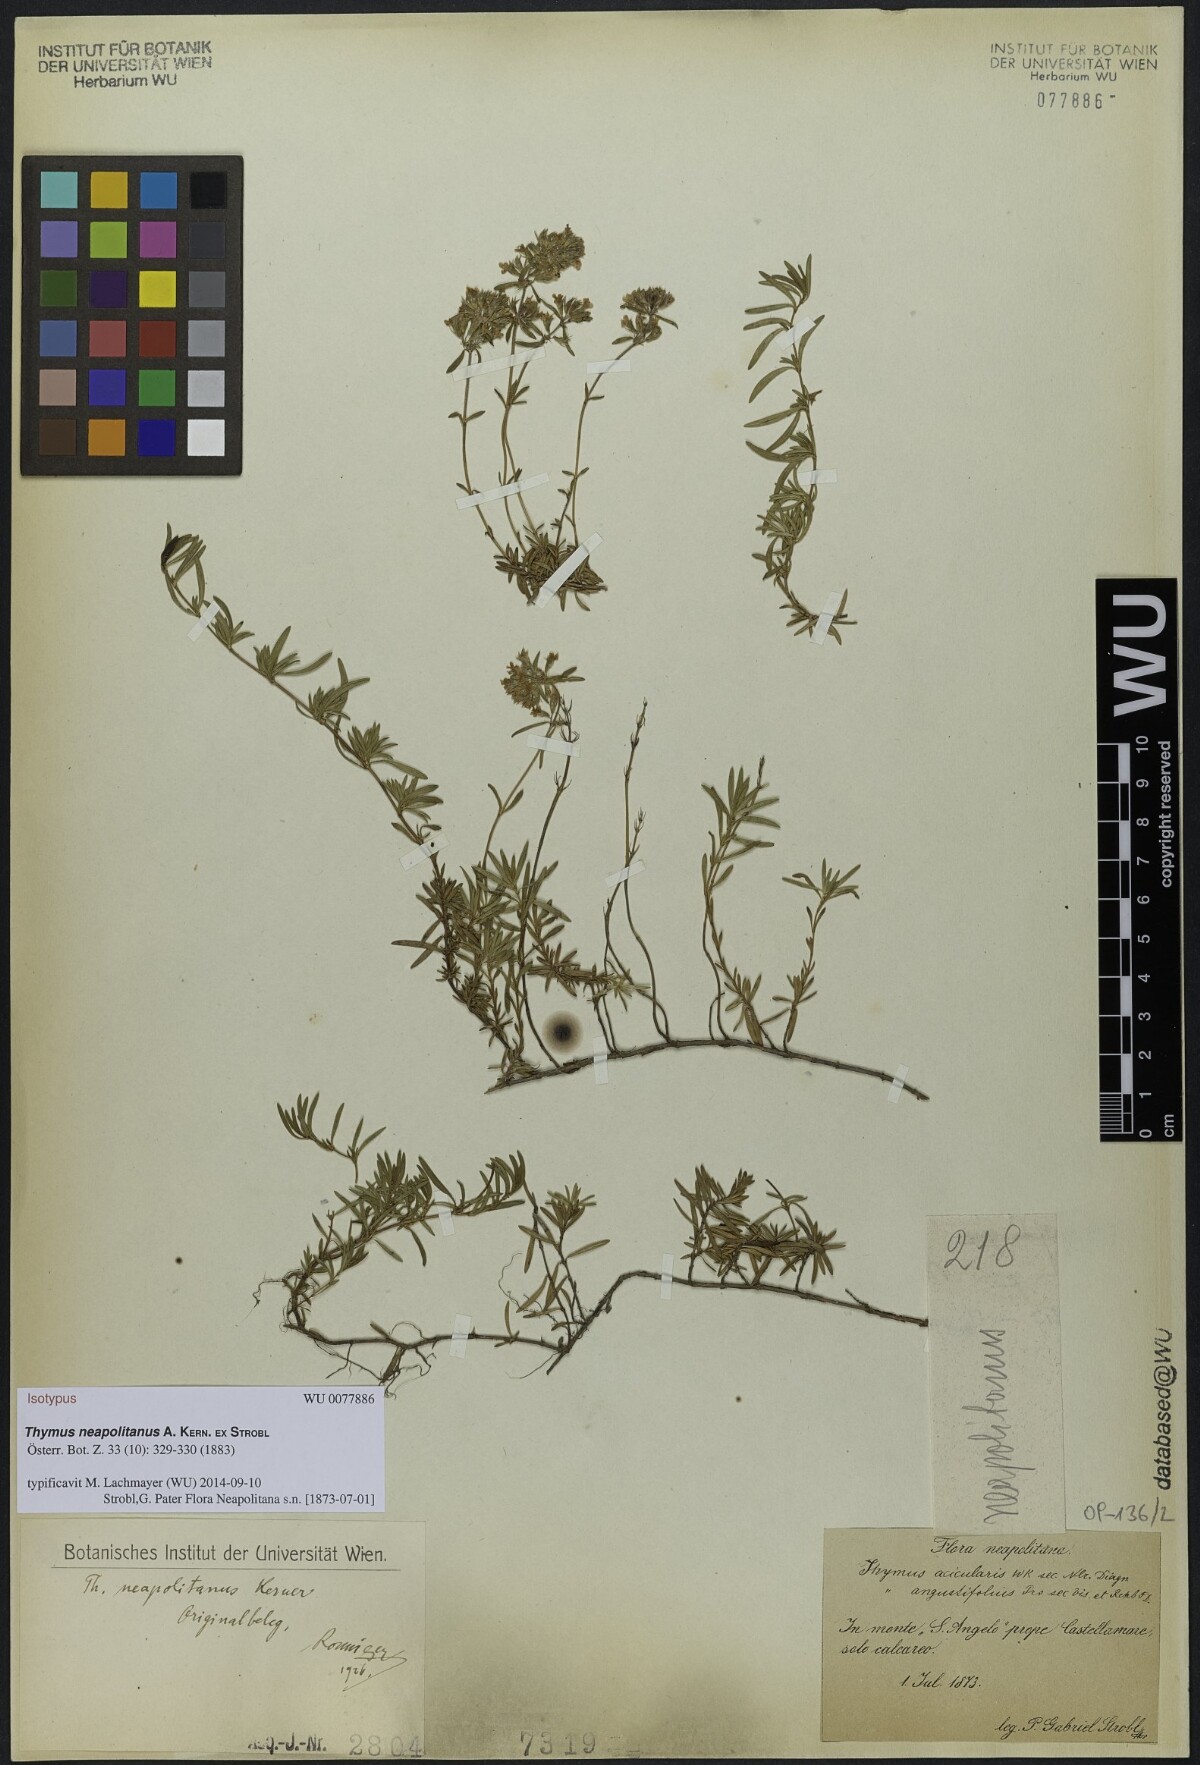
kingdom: Plantae
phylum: Tracheophyta
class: Magnoliopsida
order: Lamiales
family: Lamiaceae
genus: Thymus
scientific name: Thymus striatus
